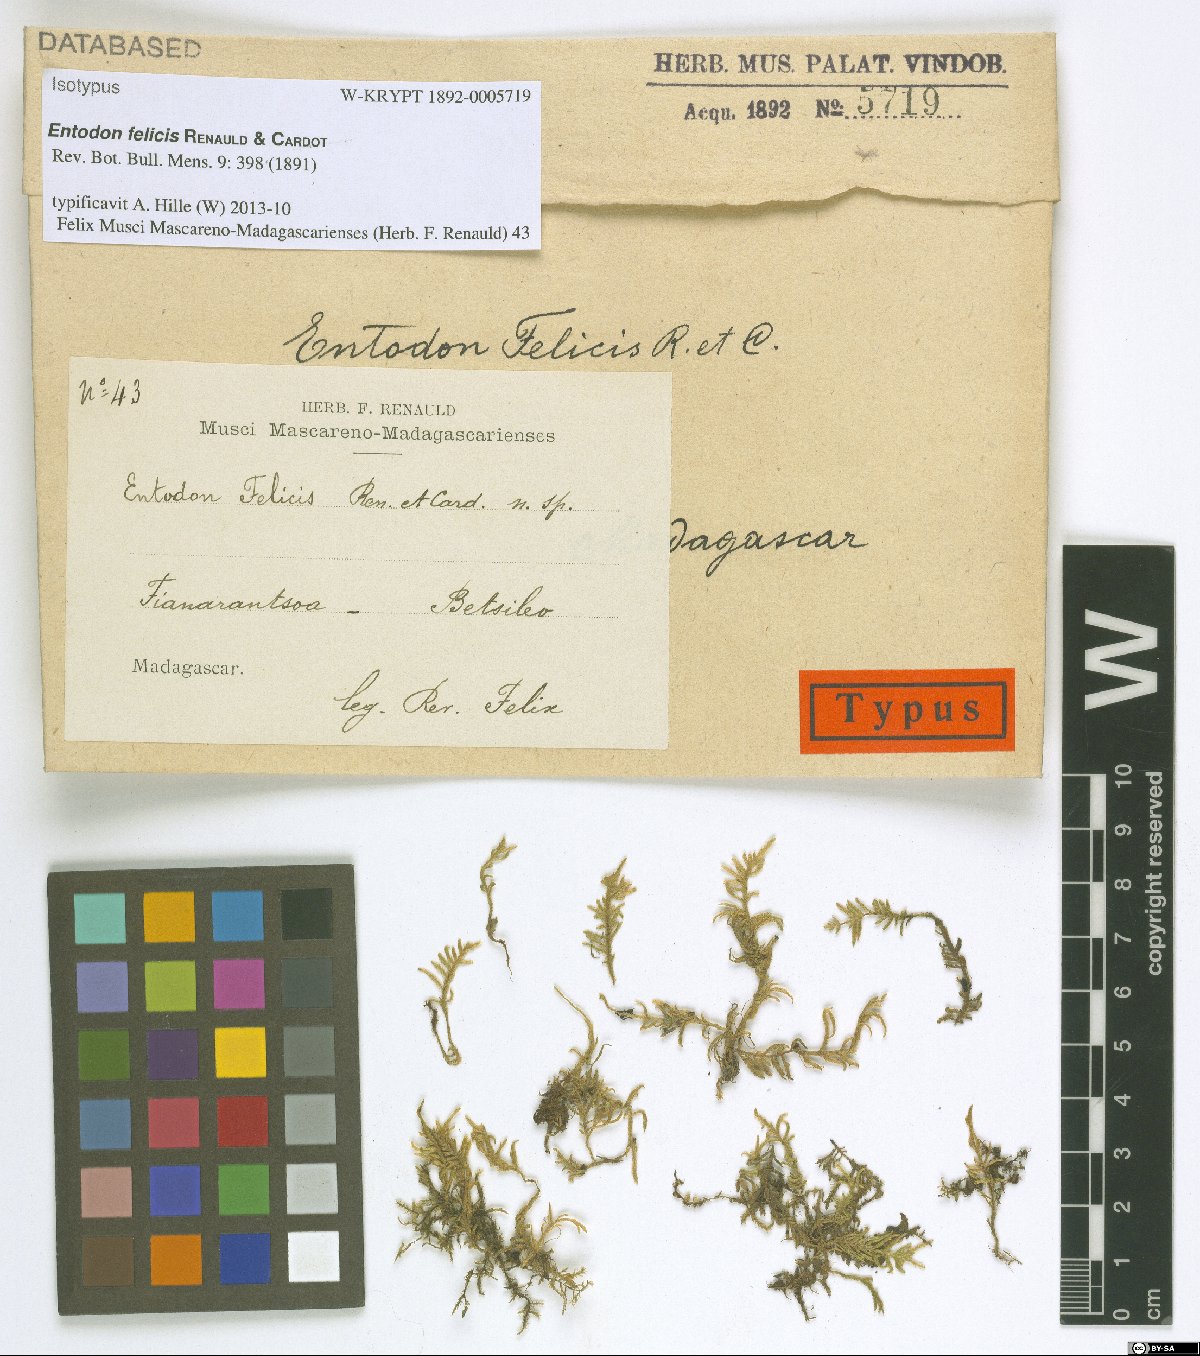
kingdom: Plantae
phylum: Bryophyta
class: Bryopsida
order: Hypnales
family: Entodontaceae
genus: Entodon
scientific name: Entodon felicis
